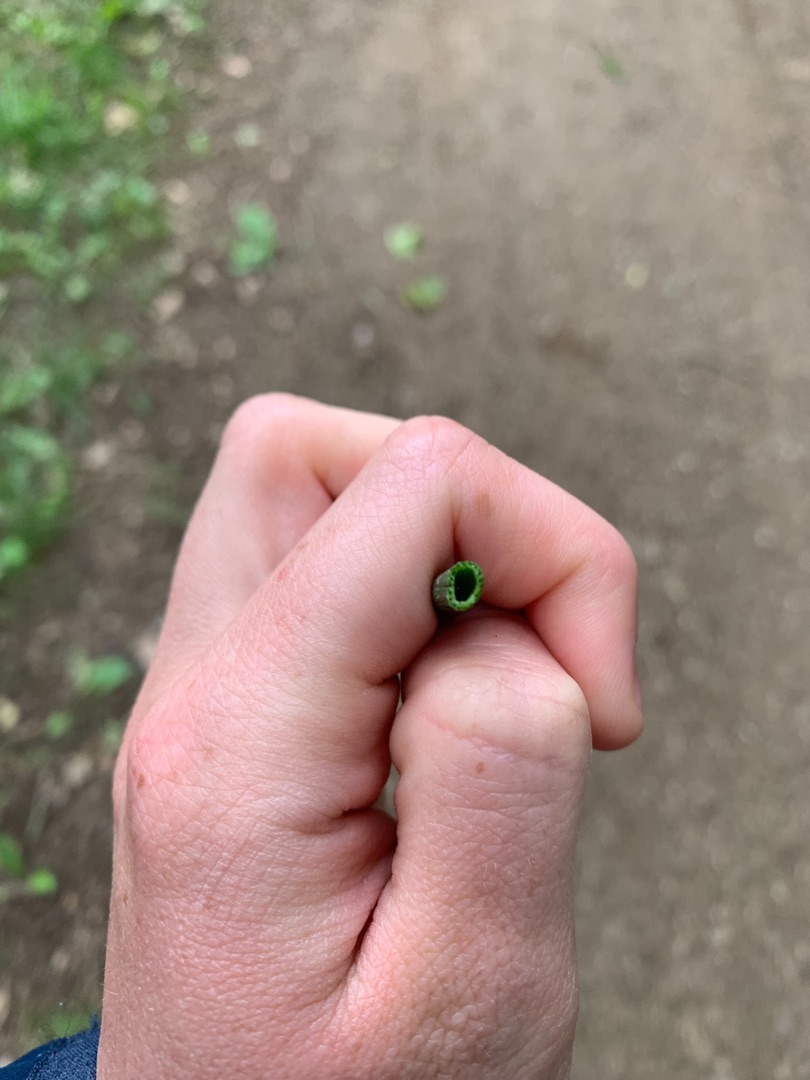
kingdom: Plantae
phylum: Tracheophyta
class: Polypodiopsida
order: Equisetales
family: Equisetaceae
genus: Equisetum
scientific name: Equisetum hyemale
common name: Skavgræs
